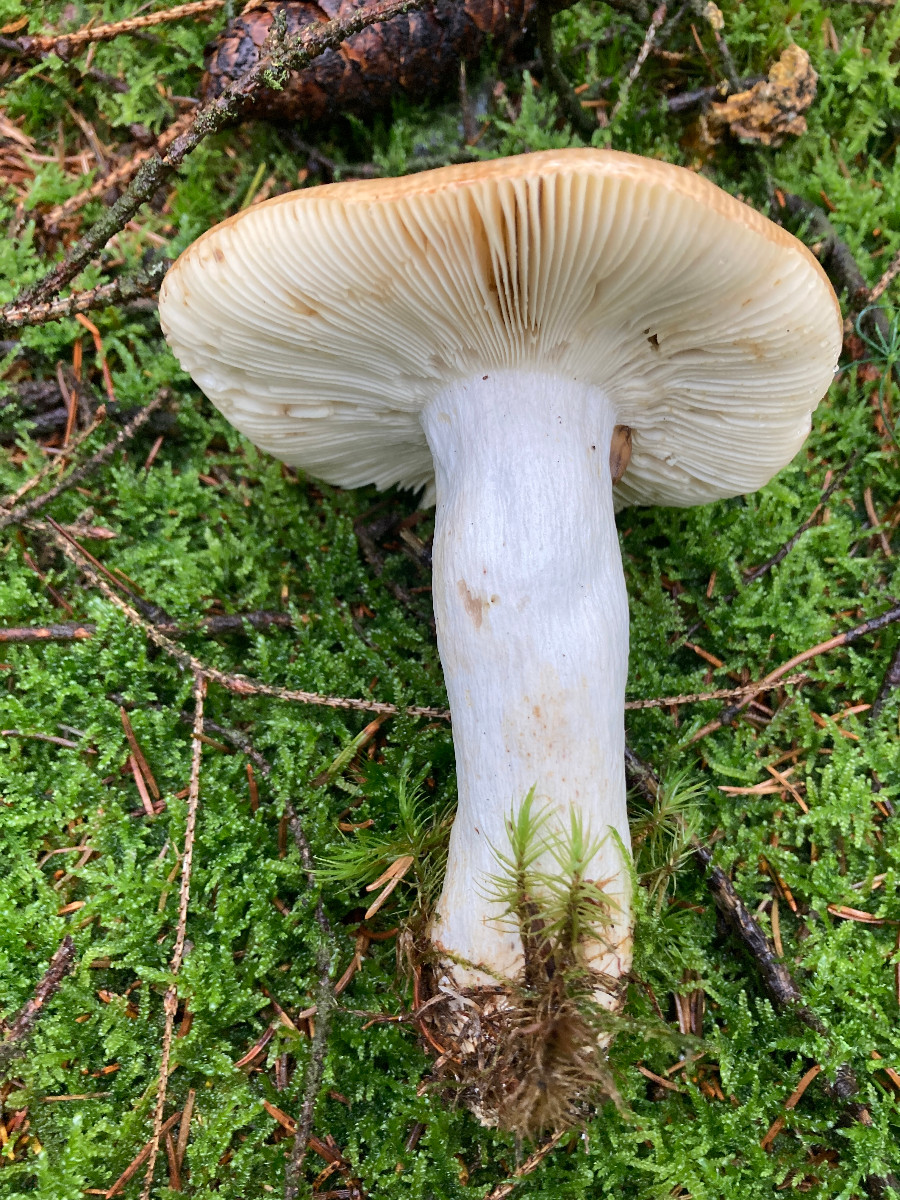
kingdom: Fungi
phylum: Basidiomycota
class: Agaricomycetes
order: Russulales
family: Russulaceae
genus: Russula
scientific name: Russula decolorans
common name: afblegende skørhat
